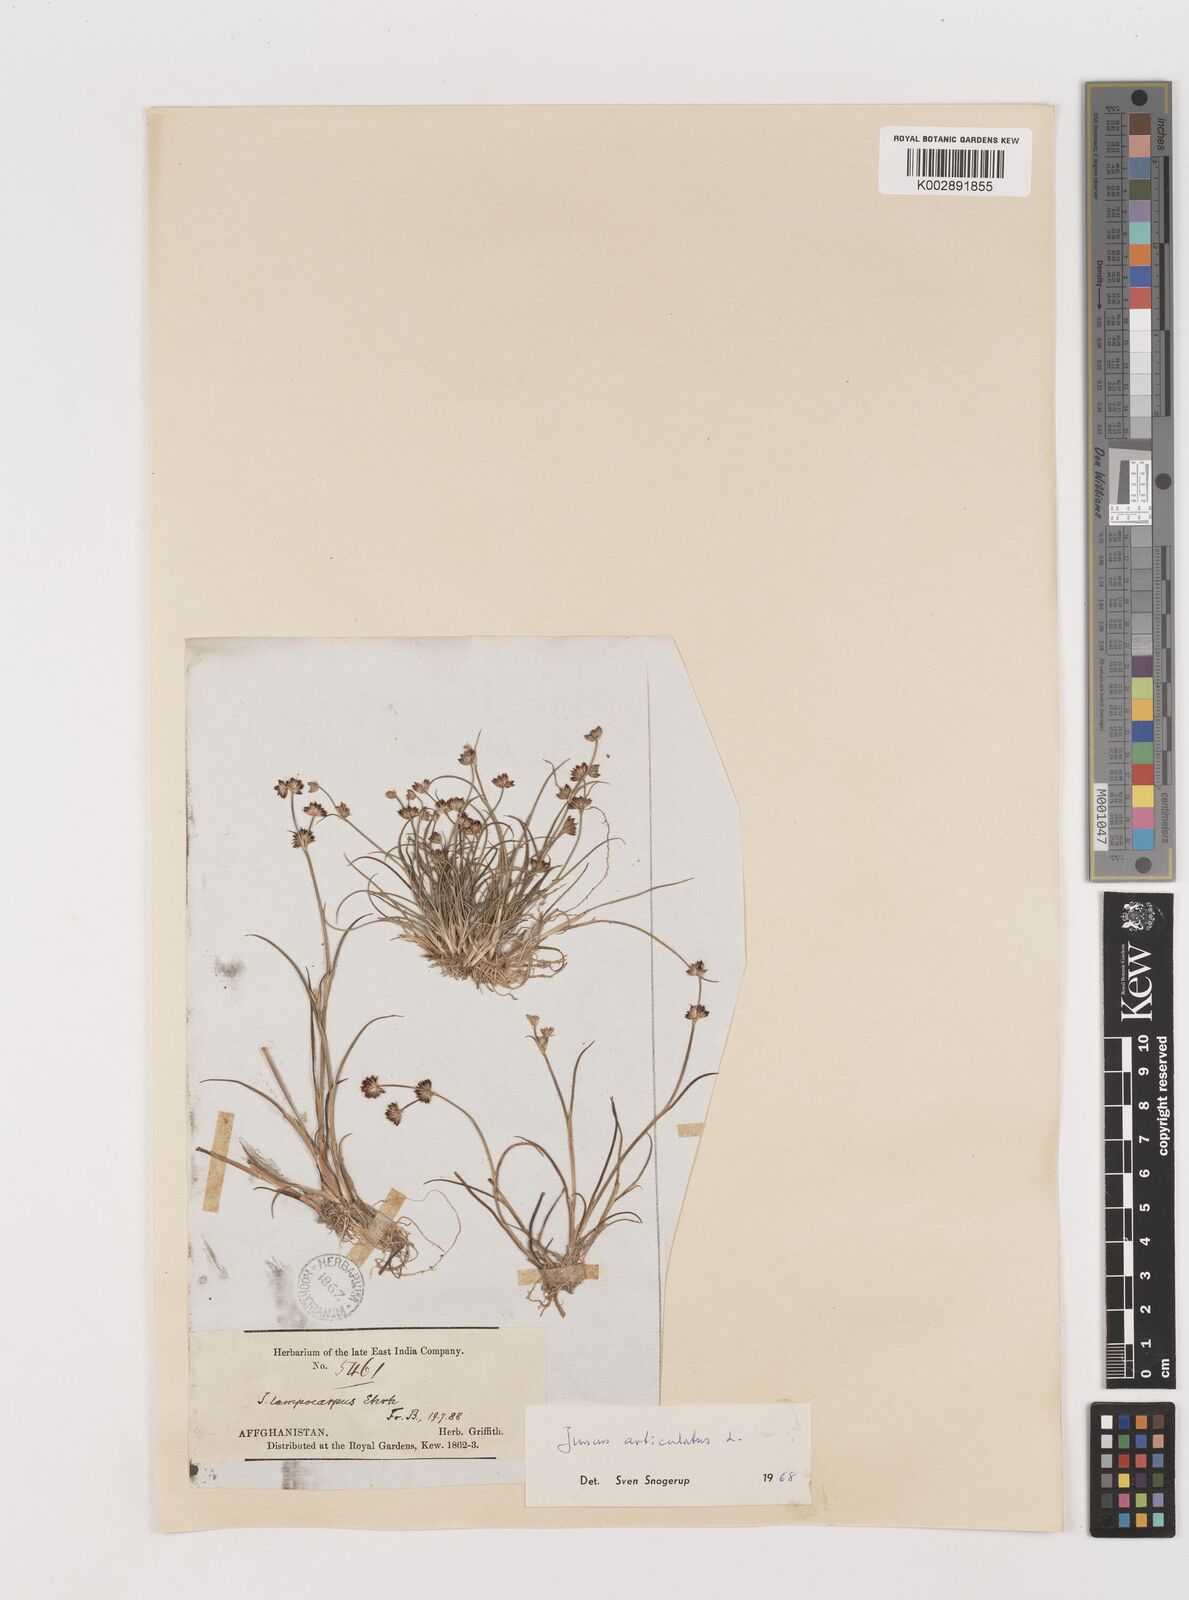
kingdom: Plantae
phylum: Tracheophyta
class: Liliopsida
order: Poales
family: Juncaceae
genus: Juncus
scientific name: Juncus articulatus
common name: Jointed rush
